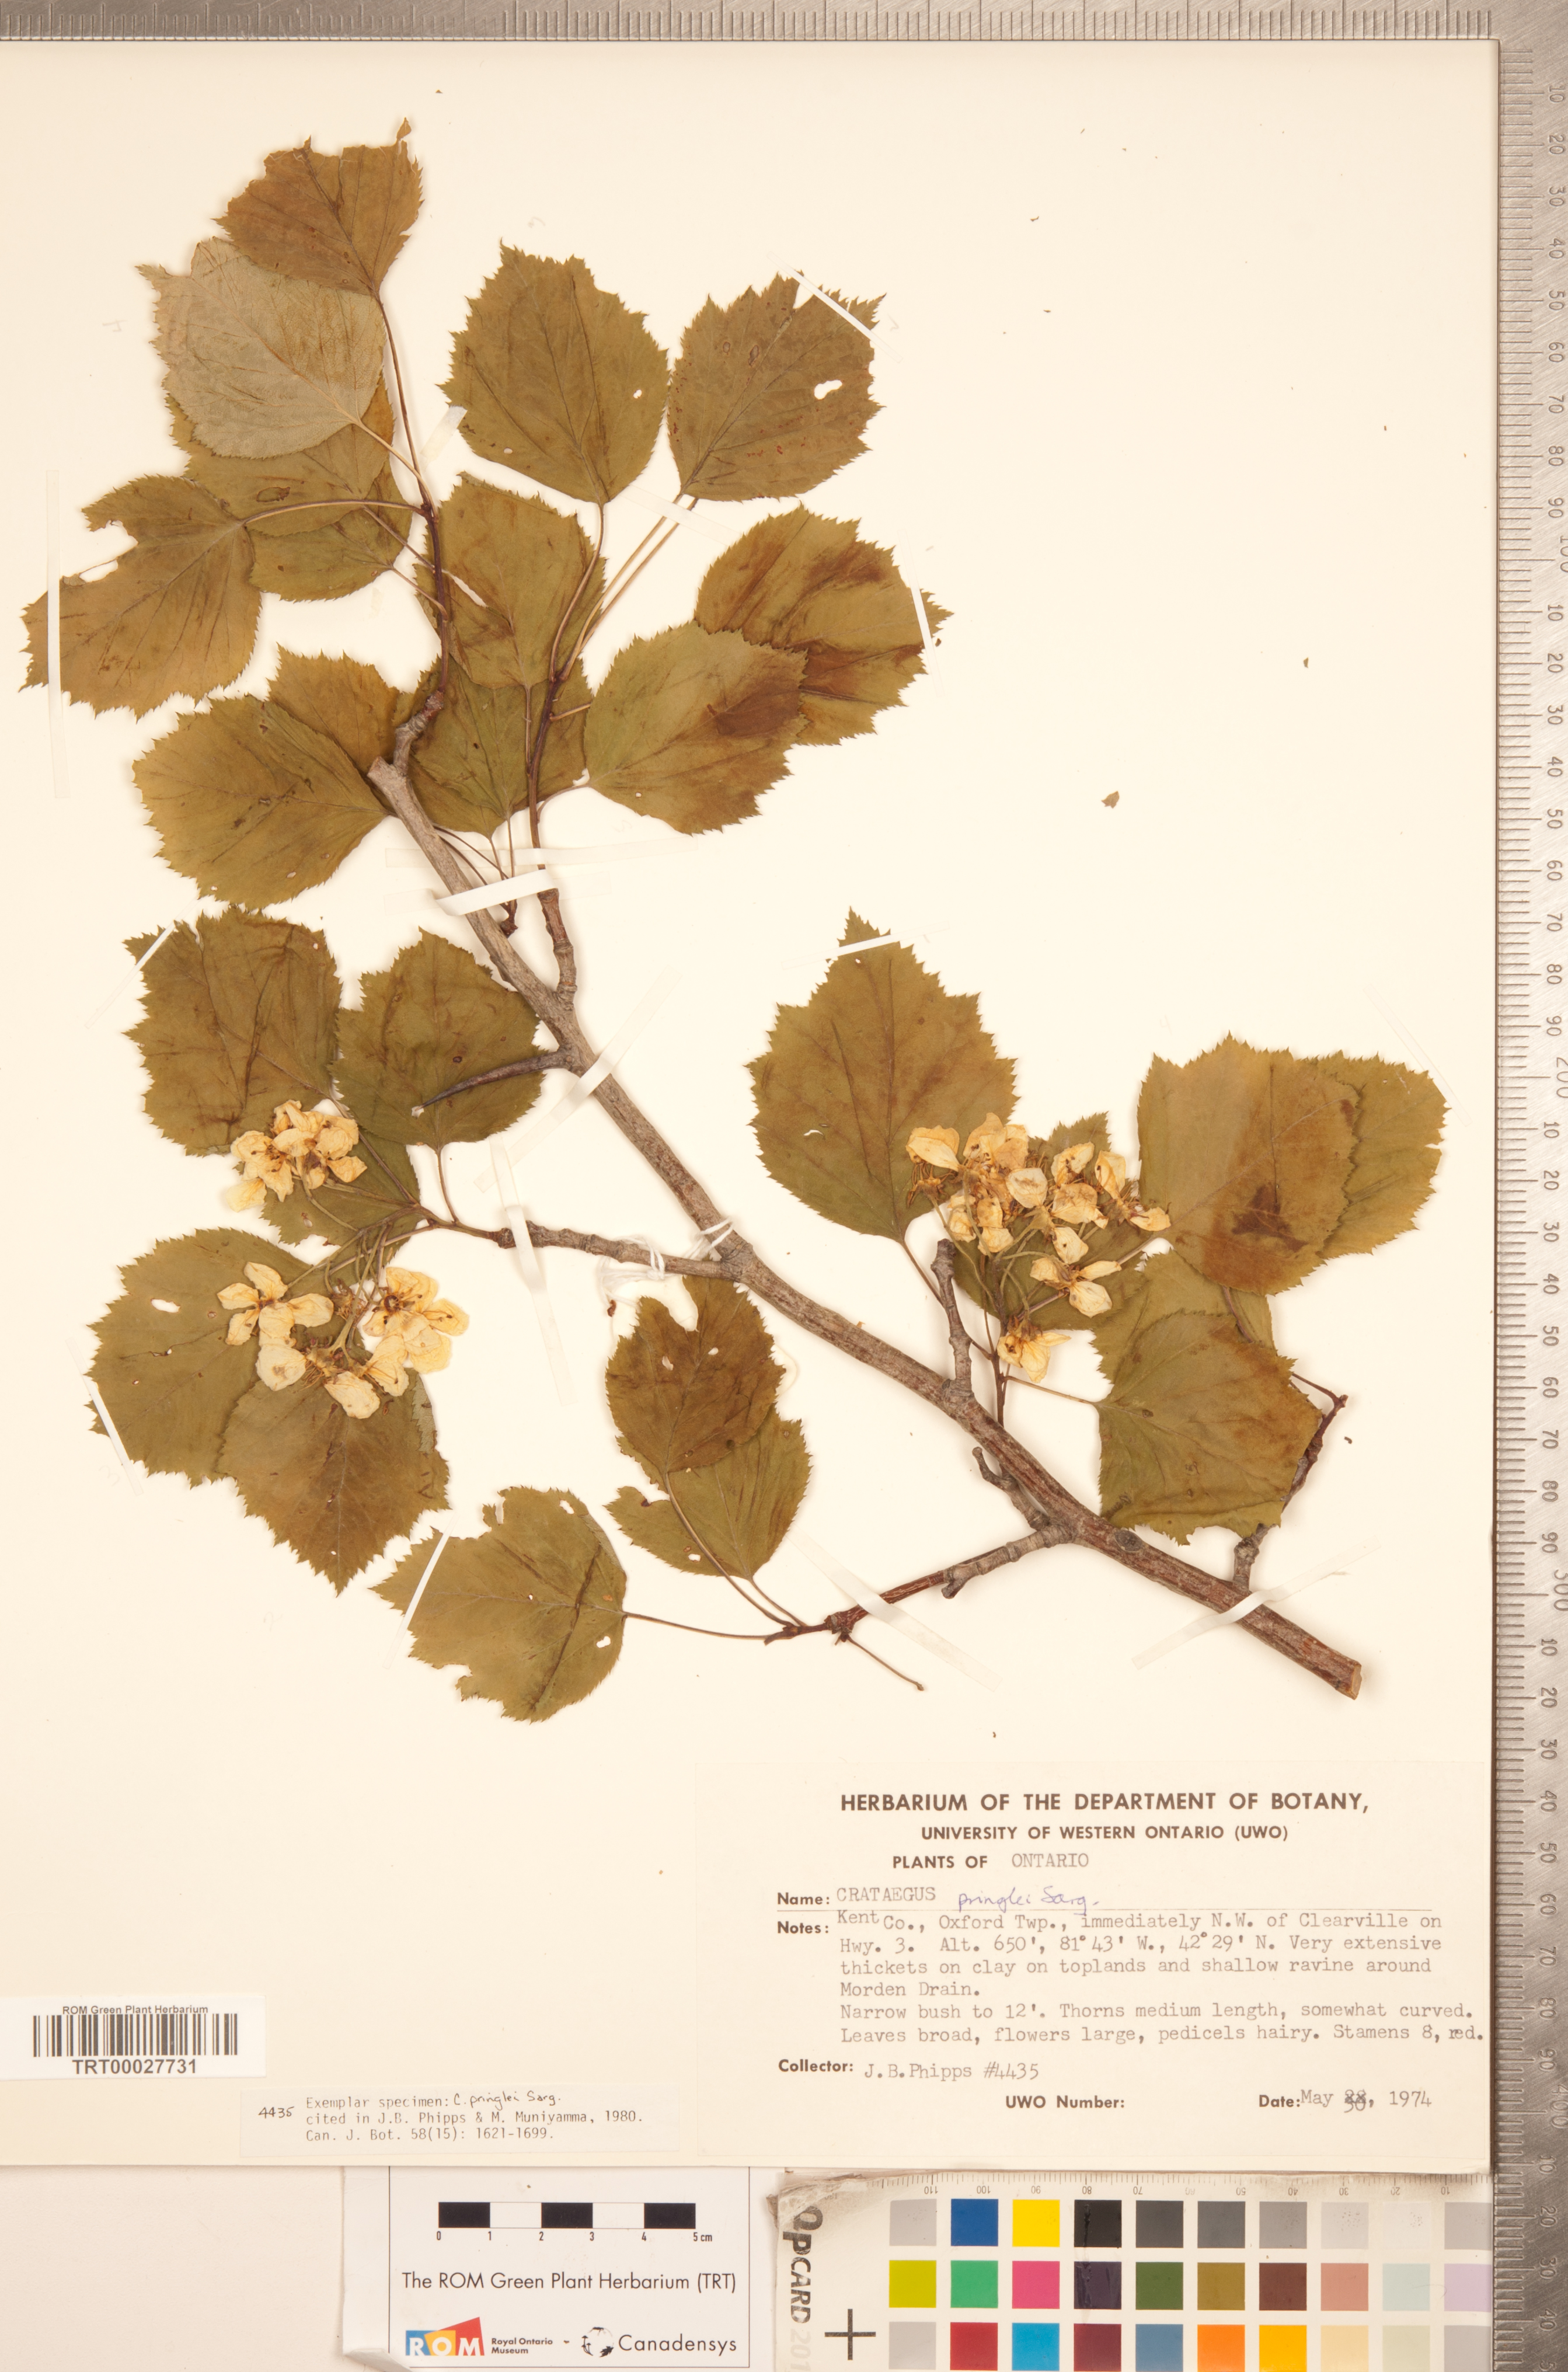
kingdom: Plantae
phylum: Tracheophyta
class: Magnoliopsida
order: Rosales
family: Rosaceae
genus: Crataegus
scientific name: Crataegus coccinea
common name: Scarlet hawthorn
